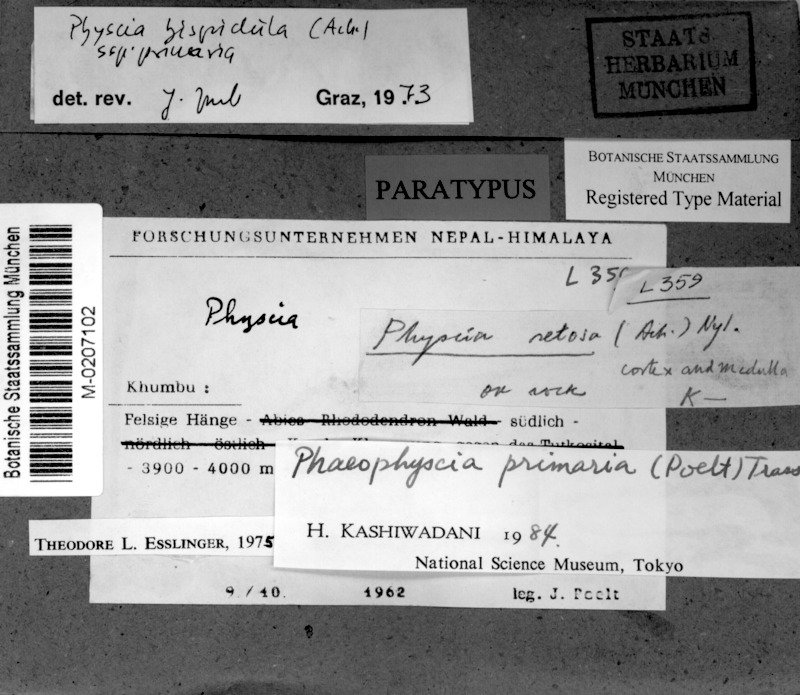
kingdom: Fungi
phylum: Ascomycota
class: Lecanoromycetes
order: Caliciales
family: Physciaceae
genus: Phaeophyscia
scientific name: Phaeophyscia primaria
